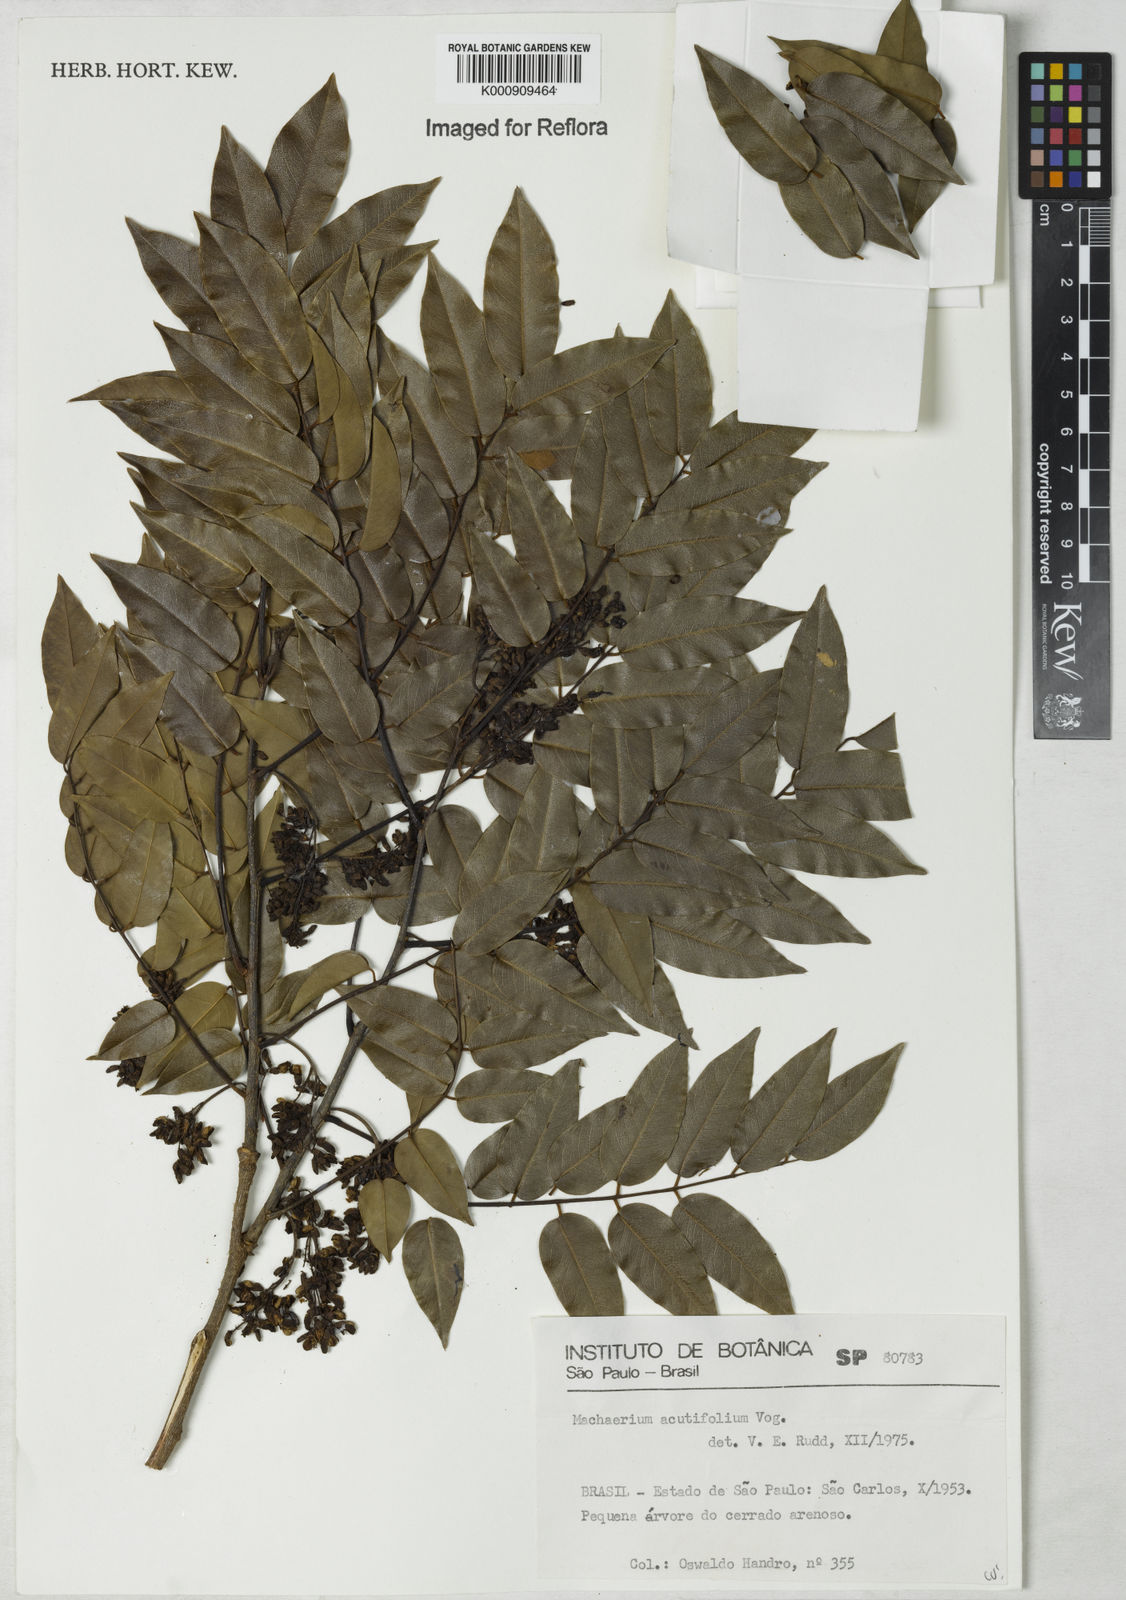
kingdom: Plantae
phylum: Tracheophyta
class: Magnoliopsida
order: Fabales
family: Fabaceae
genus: Machaerium
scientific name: Machaerium acutifolium
